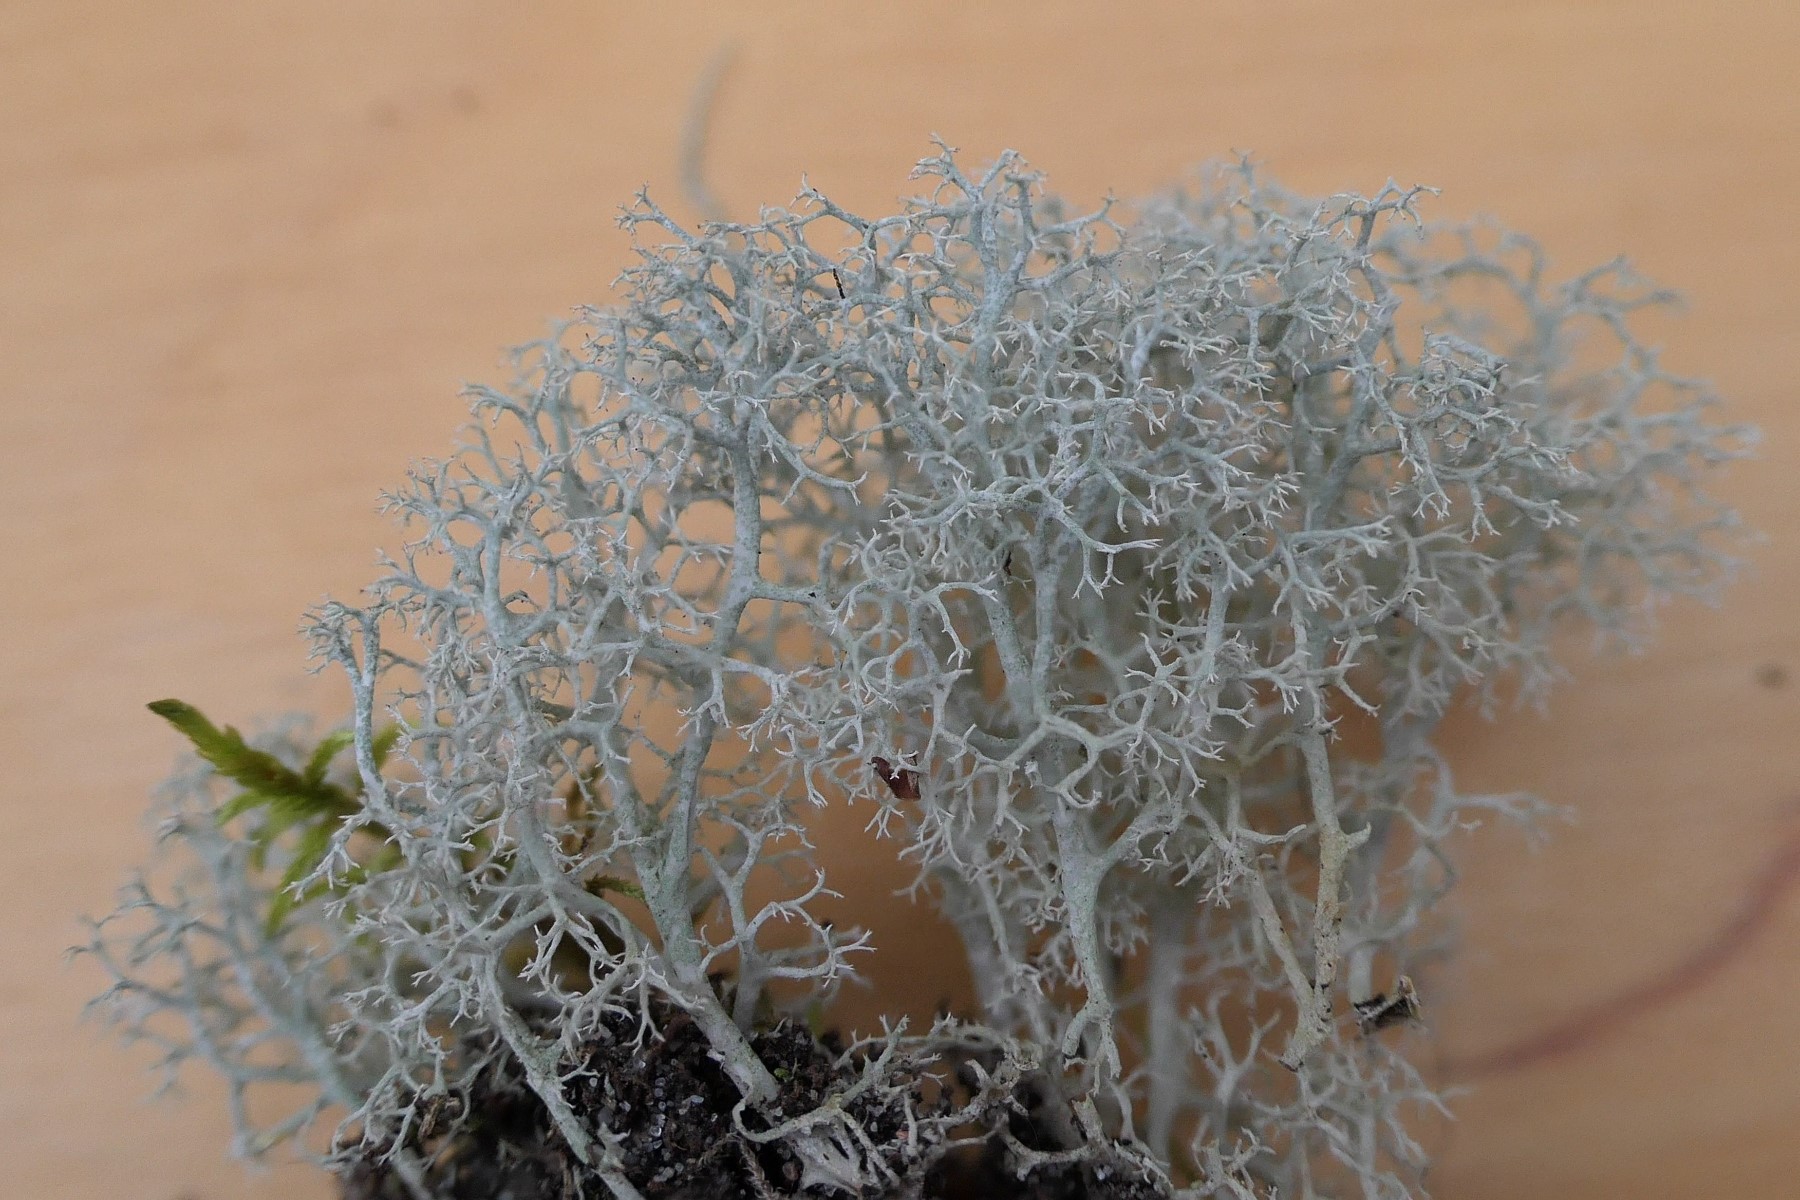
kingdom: Fungi
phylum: Ascomycota
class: Lecanoromycetes
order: Lecanorales
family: Cladoniaceae
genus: Cladonia
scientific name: Cladonia portentosa
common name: hede-rensdyrlav
